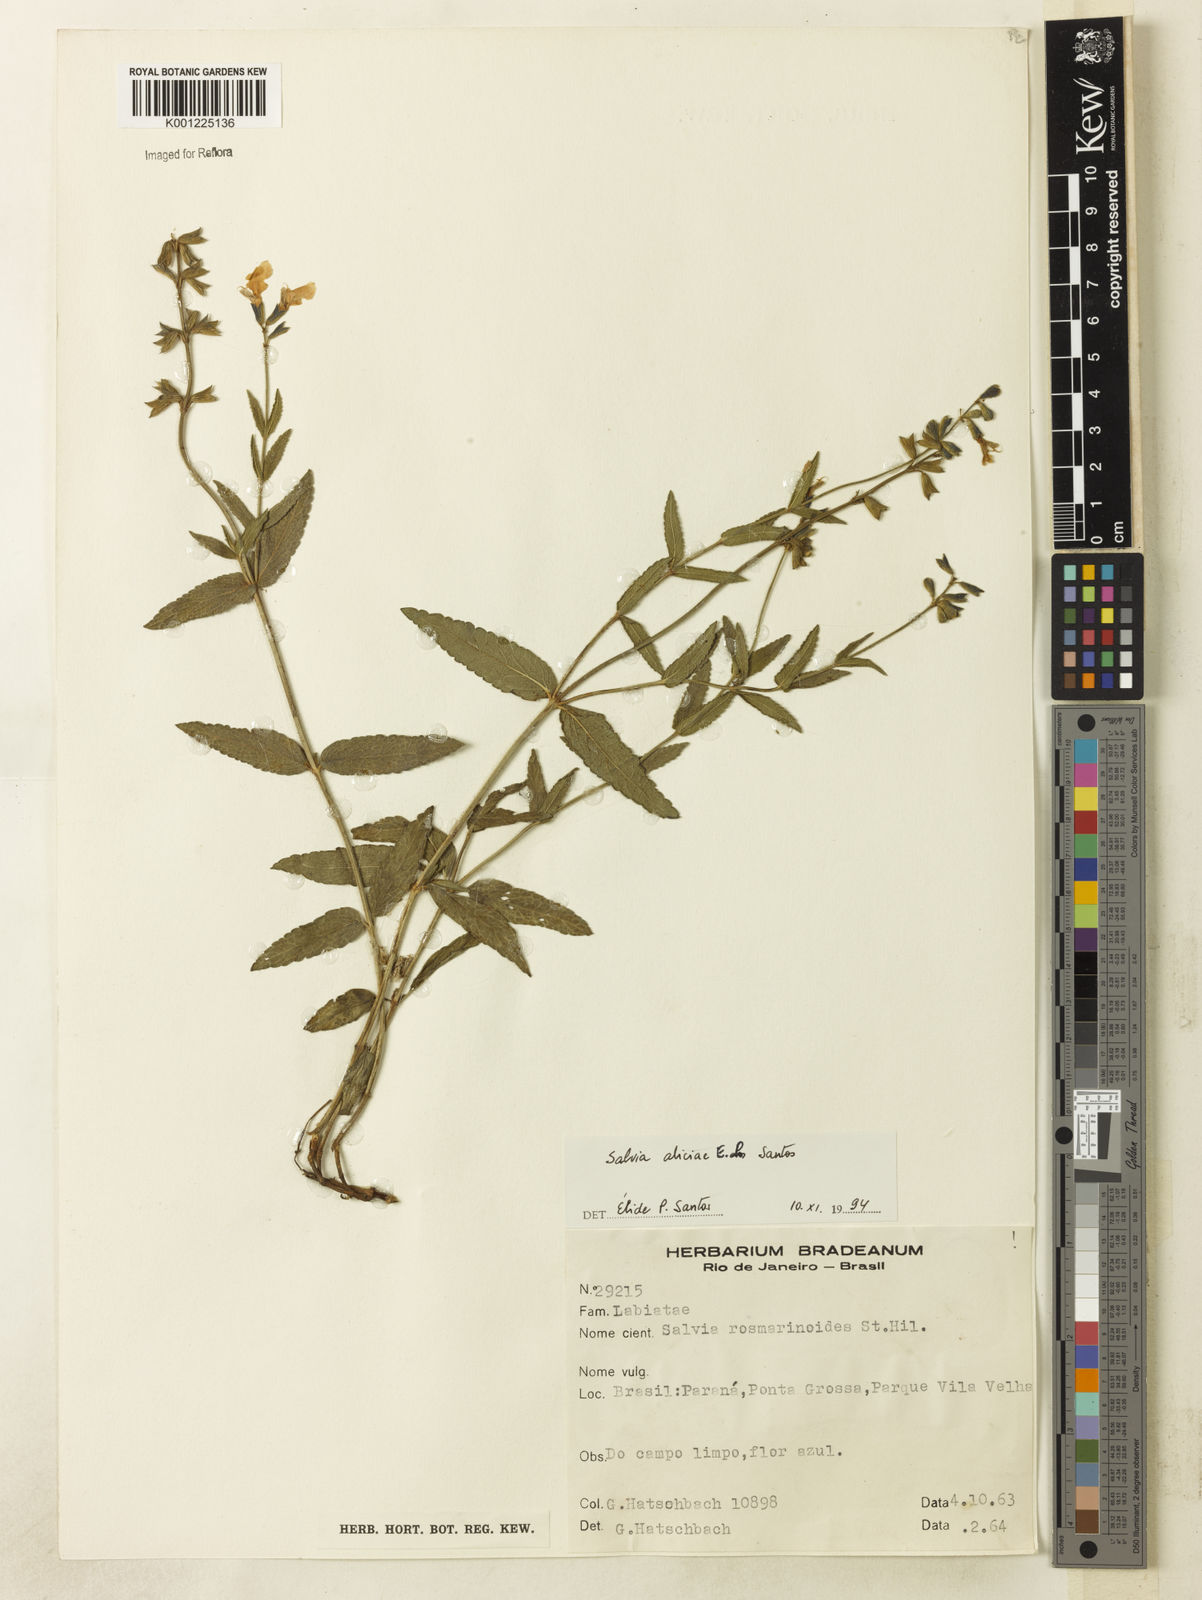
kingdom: Plantae
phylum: Tracheophyta
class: Magnoliopsida
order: Lamiales
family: Lamiaceae
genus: Salvia
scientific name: Salvia aliciae
